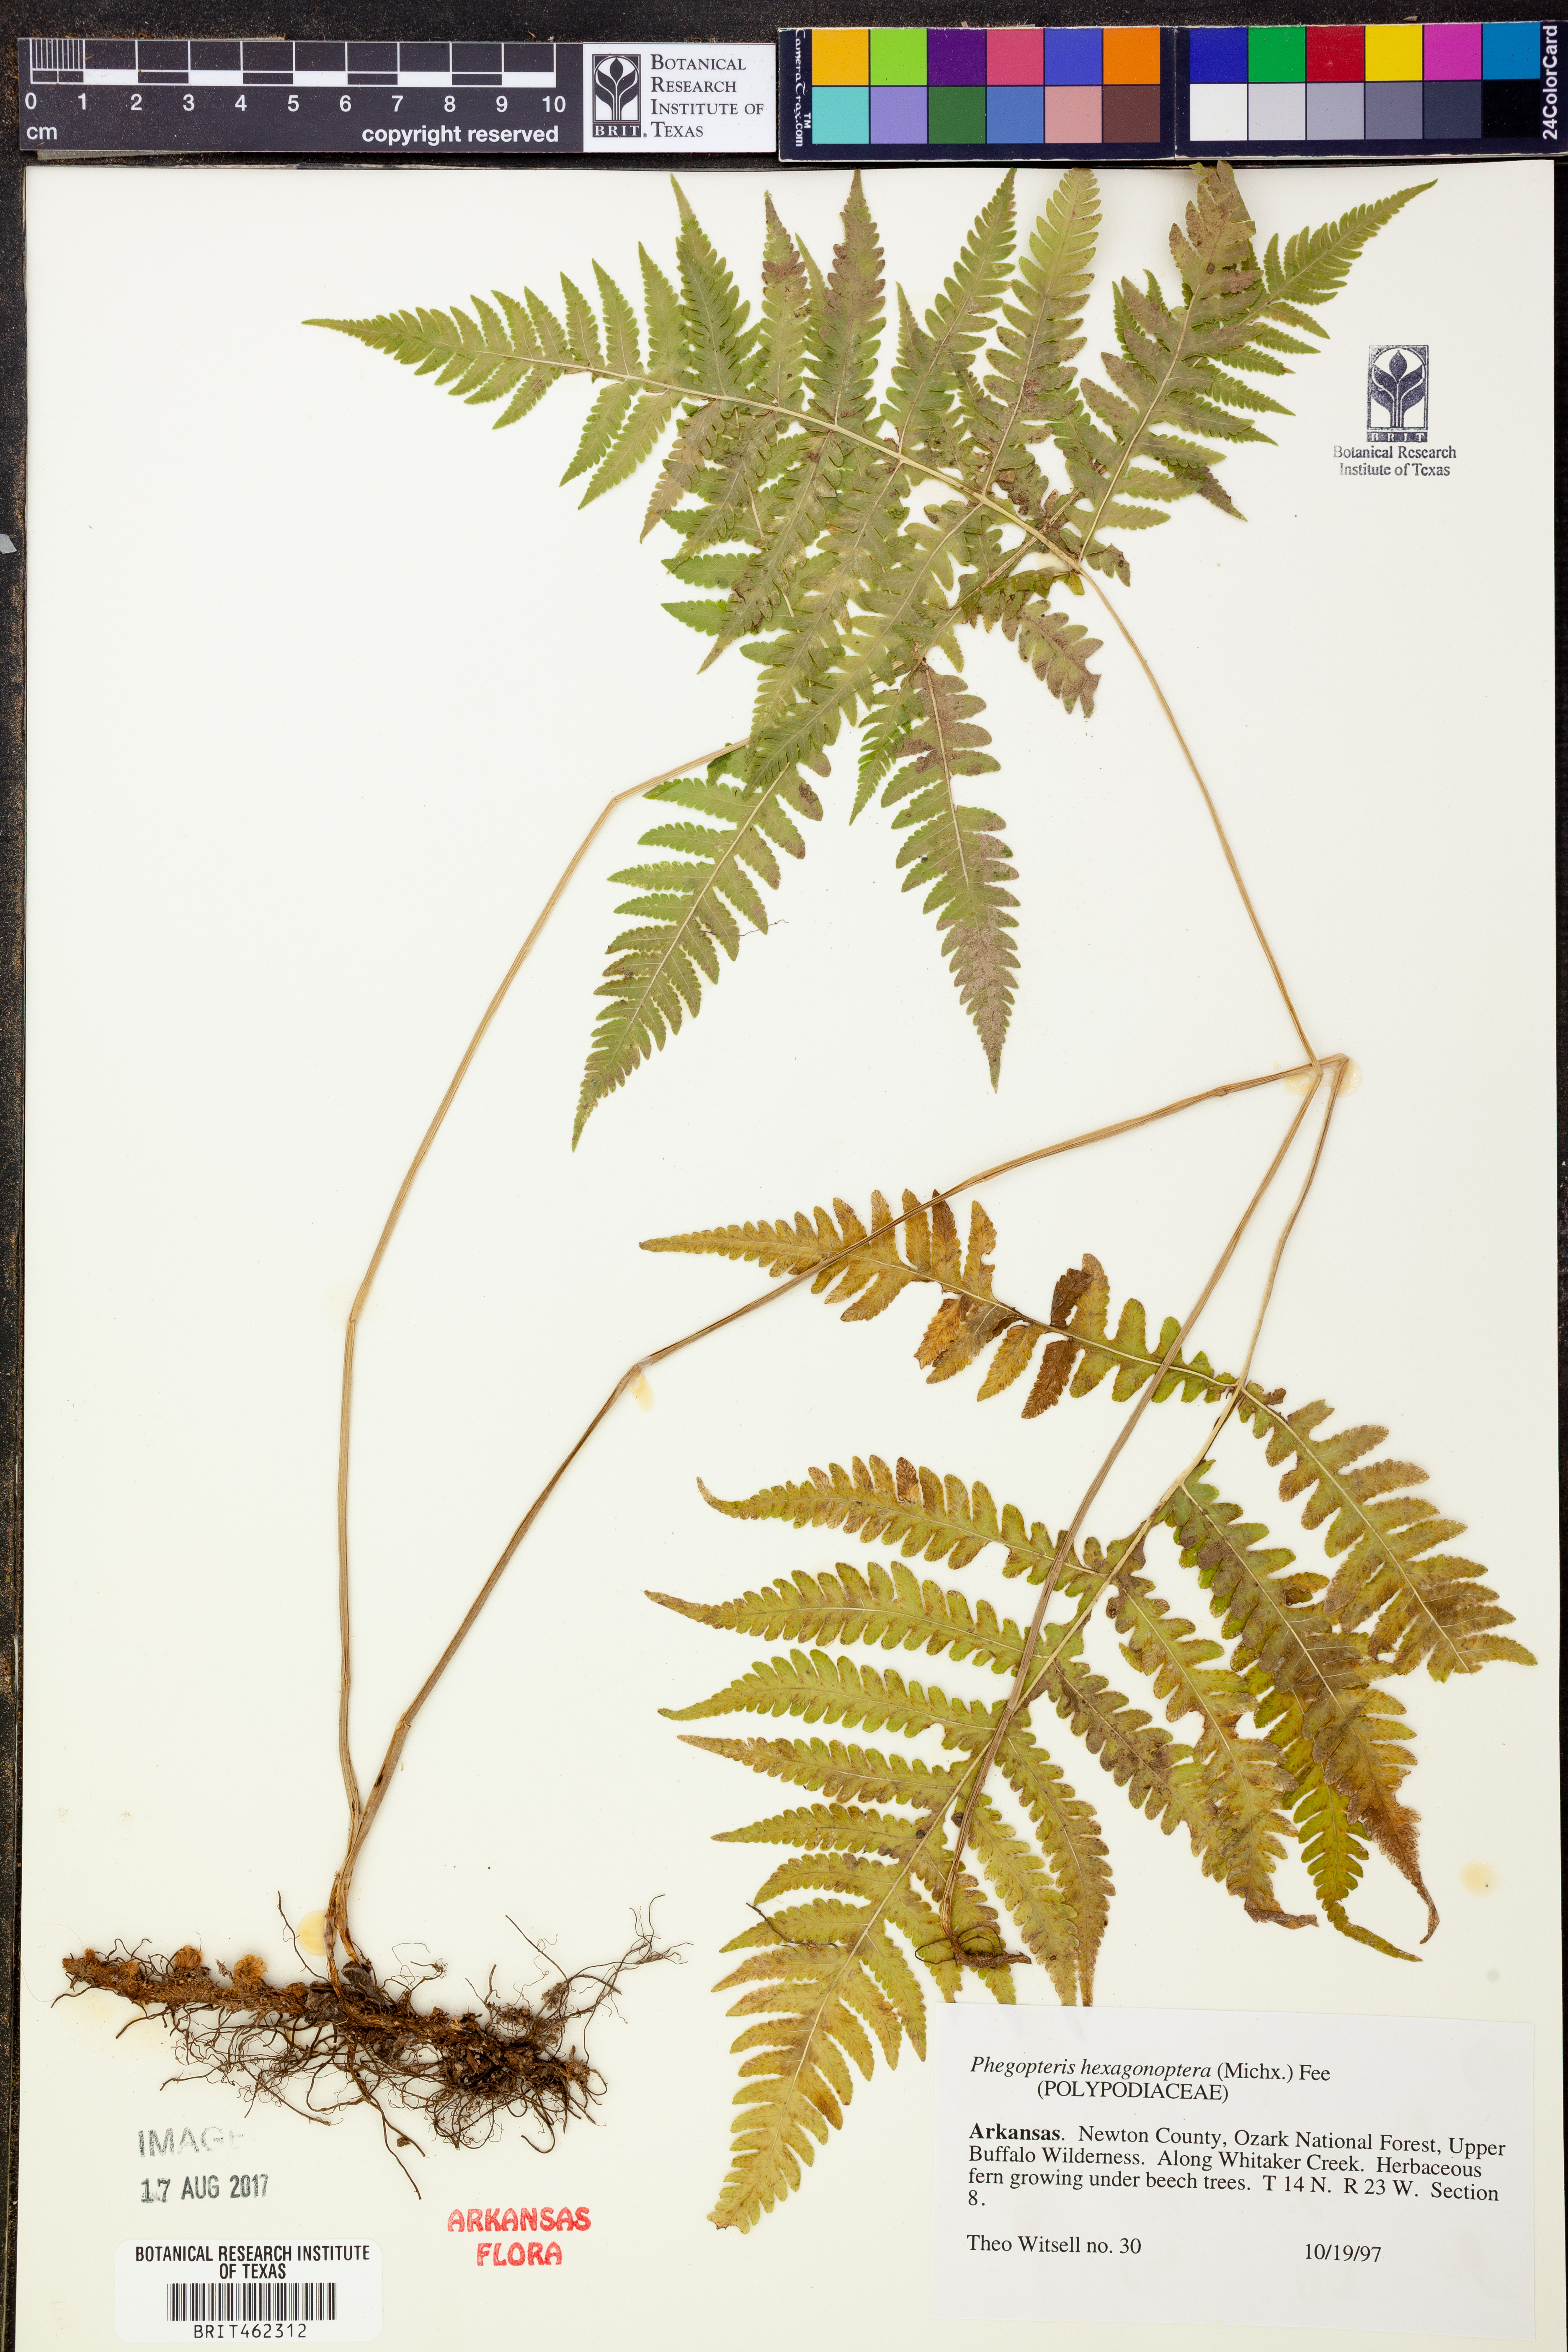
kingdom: Plantae
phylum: Tracheophyta
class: Polypodiopsida
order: Polypodiales
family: Thelypteridaceae
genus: Phegopteris
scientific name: Phegopteris hexagonoptera
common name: Broad beech fern
